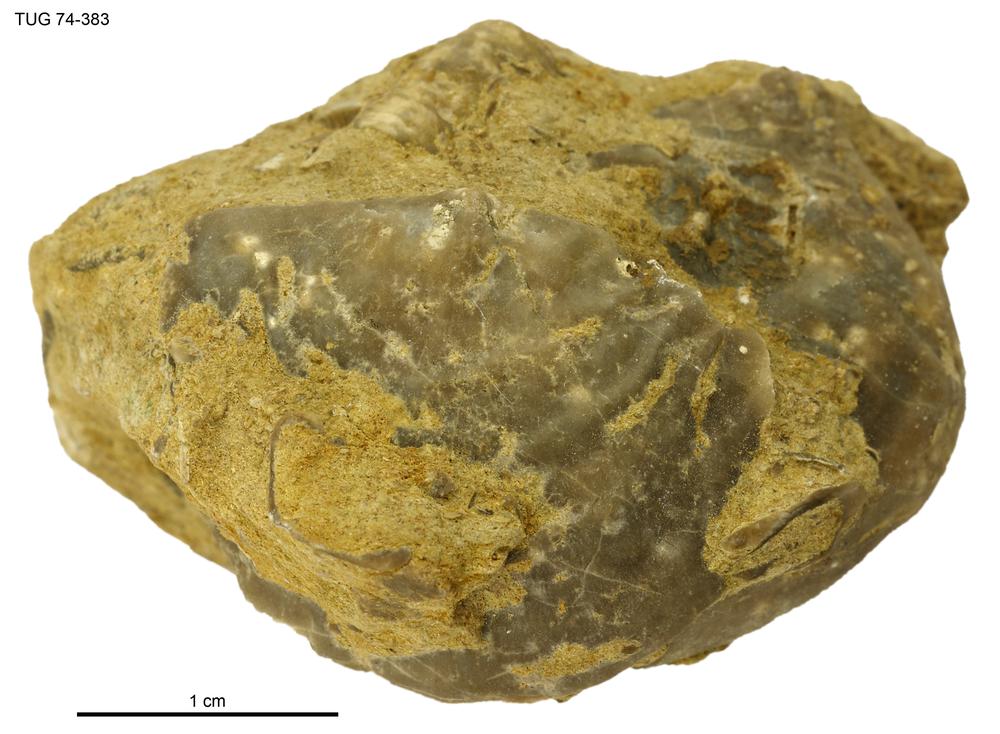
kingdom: Animalia
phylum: Brachiopoda
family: Strophomenidae
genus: Leptaena
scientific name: Leptaena
